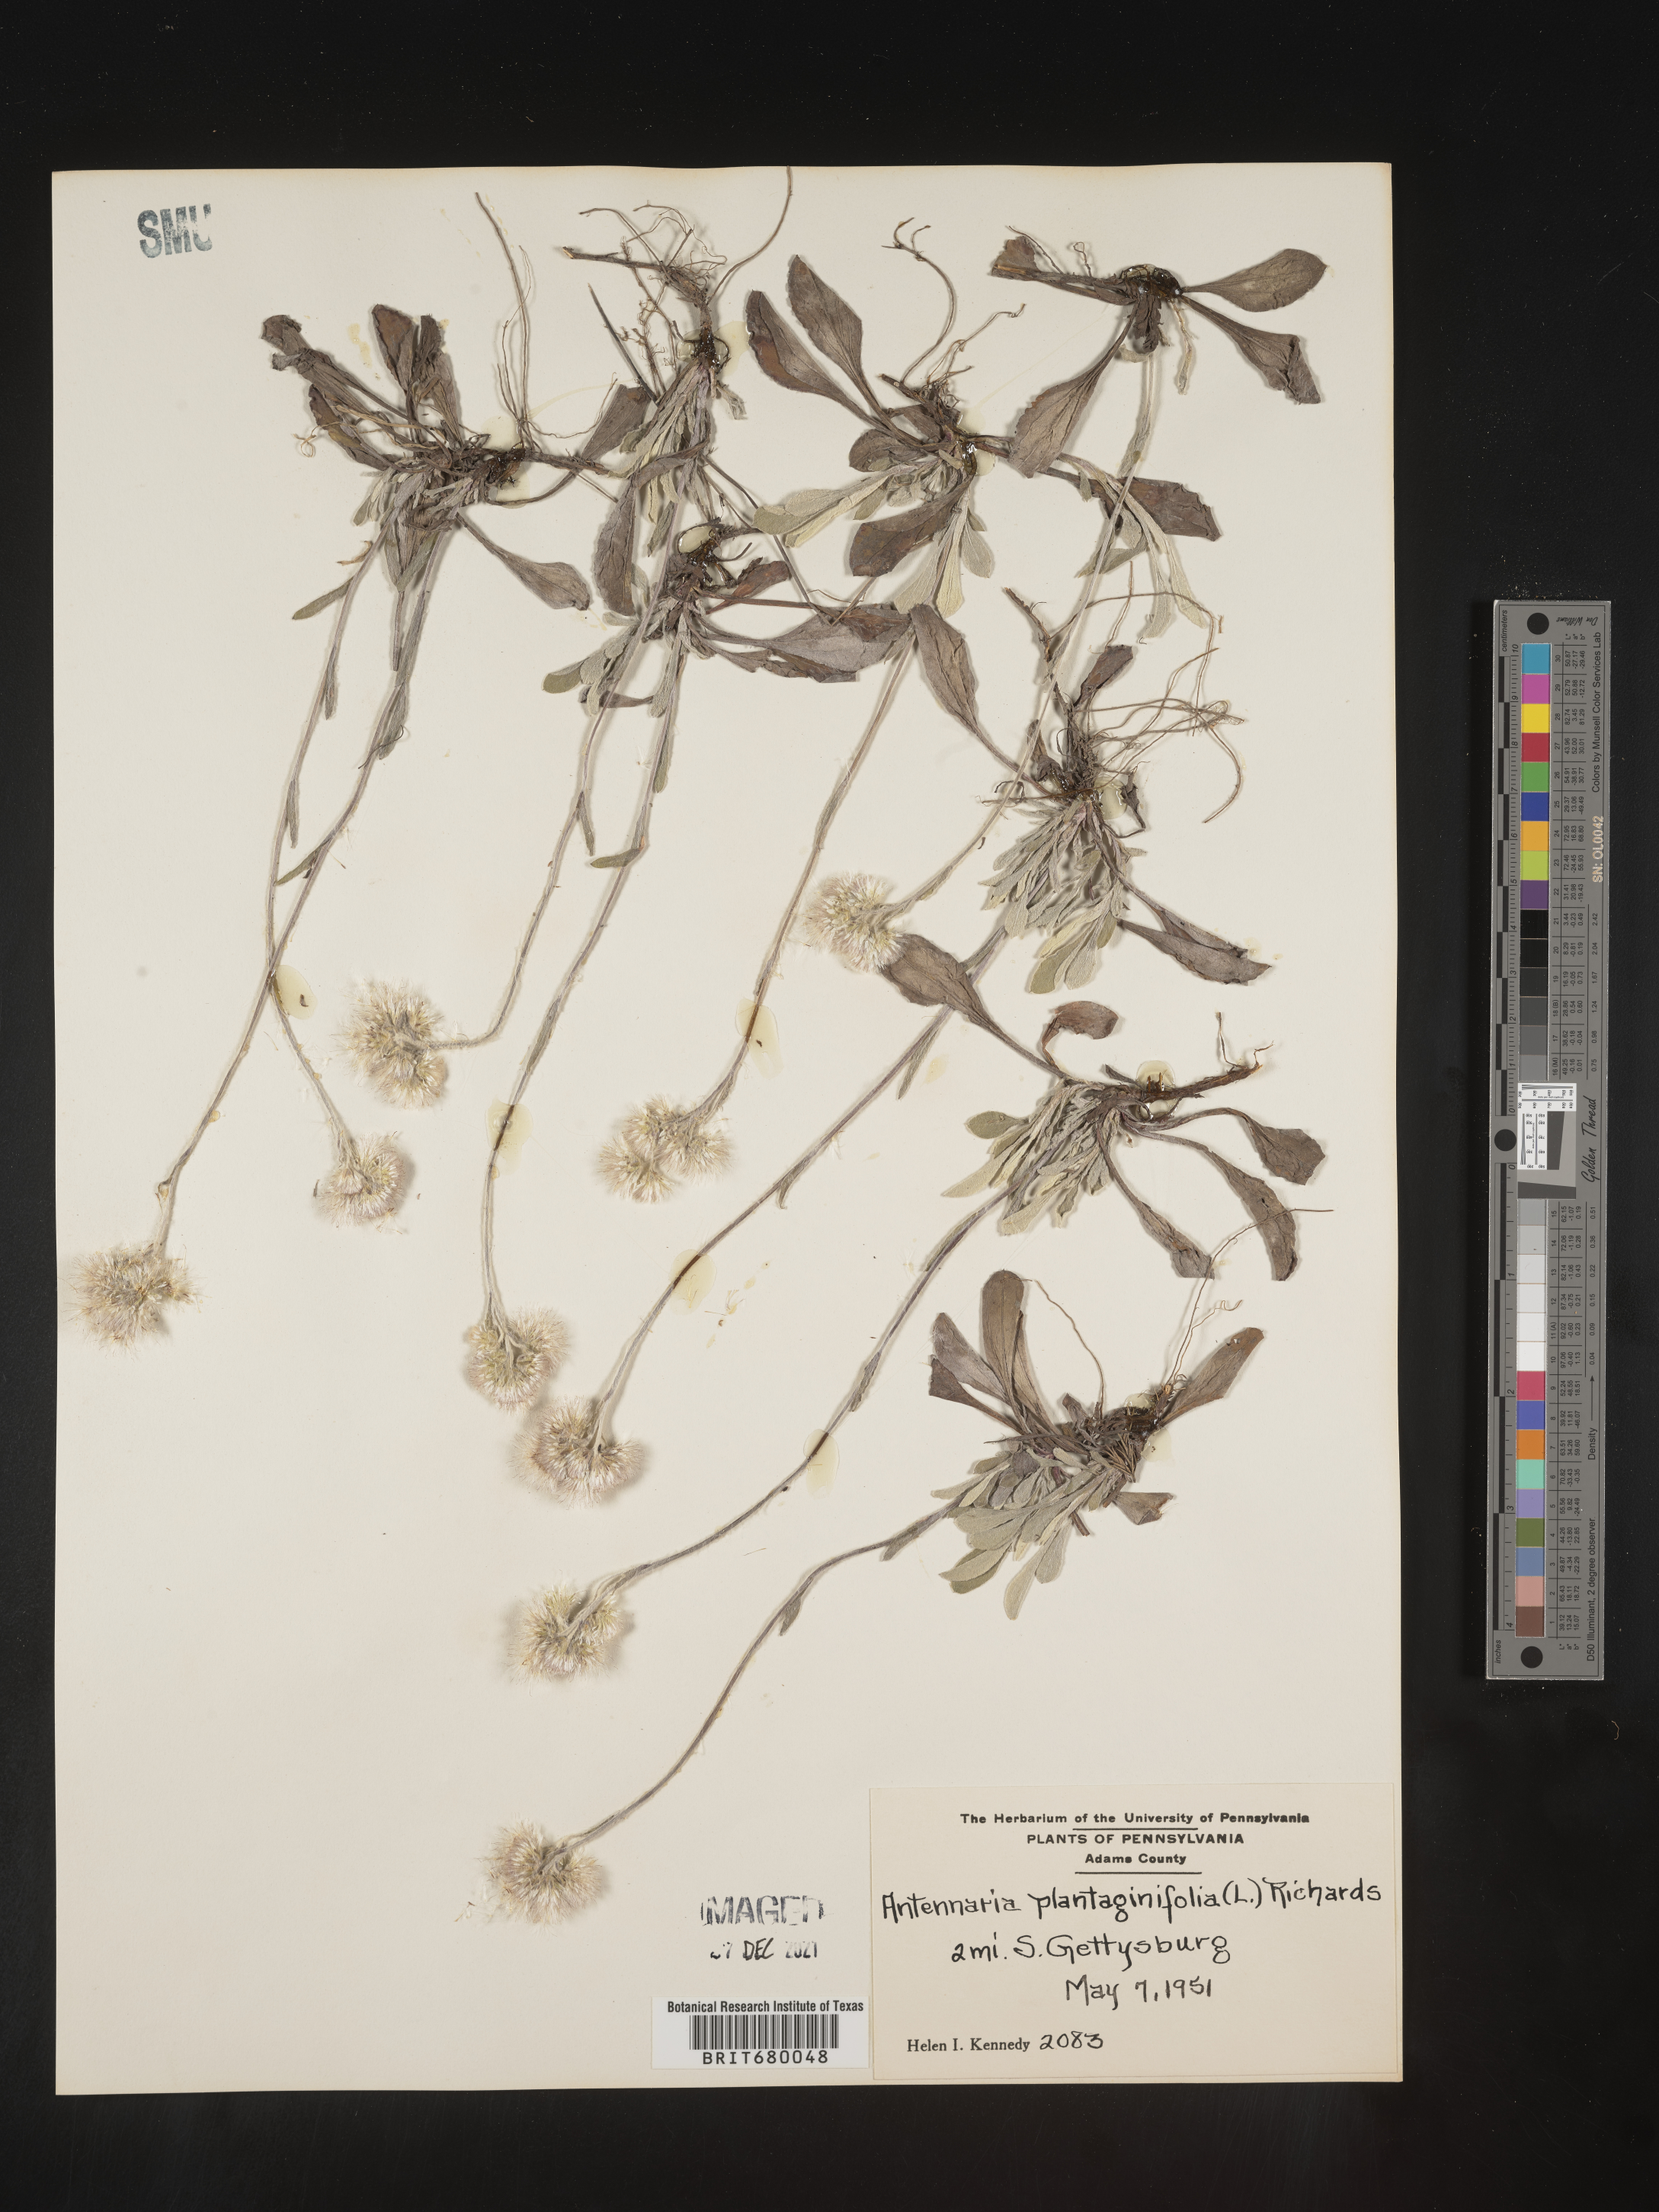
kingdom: Plantae
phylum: Tracheophyta
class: Magnoliopsida
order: Asterales
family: Asteraceae
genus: Antennaria
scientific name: Antennaria plantaginifolia
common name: Plantain-leaved pussytoes
